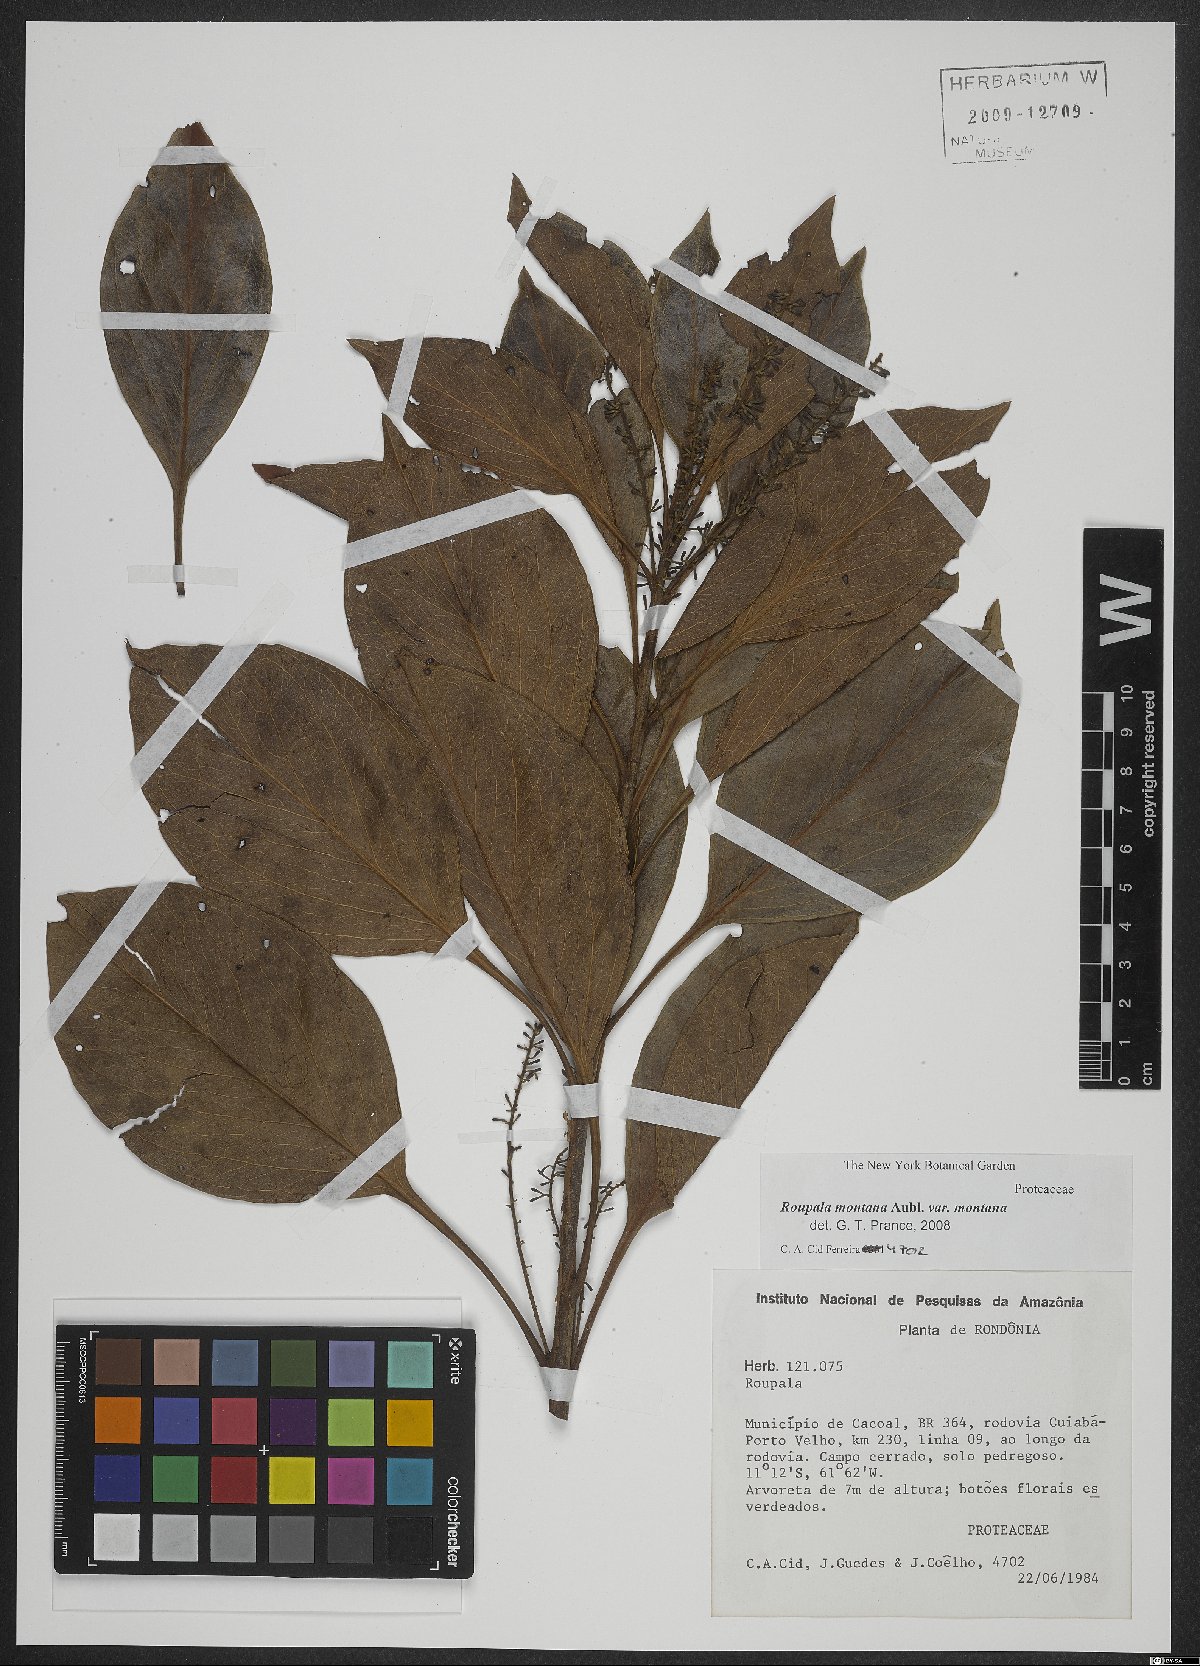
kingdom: Plantae
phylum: Tracheophyta
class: Magnoliopsida
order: Proteales
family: Proteaceae
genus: Roupala
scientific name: Roupala montana
